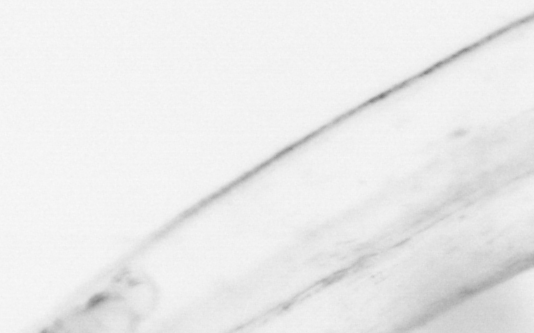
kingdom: Animalia
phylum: Chaetognatha
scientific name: Chaetognatha
